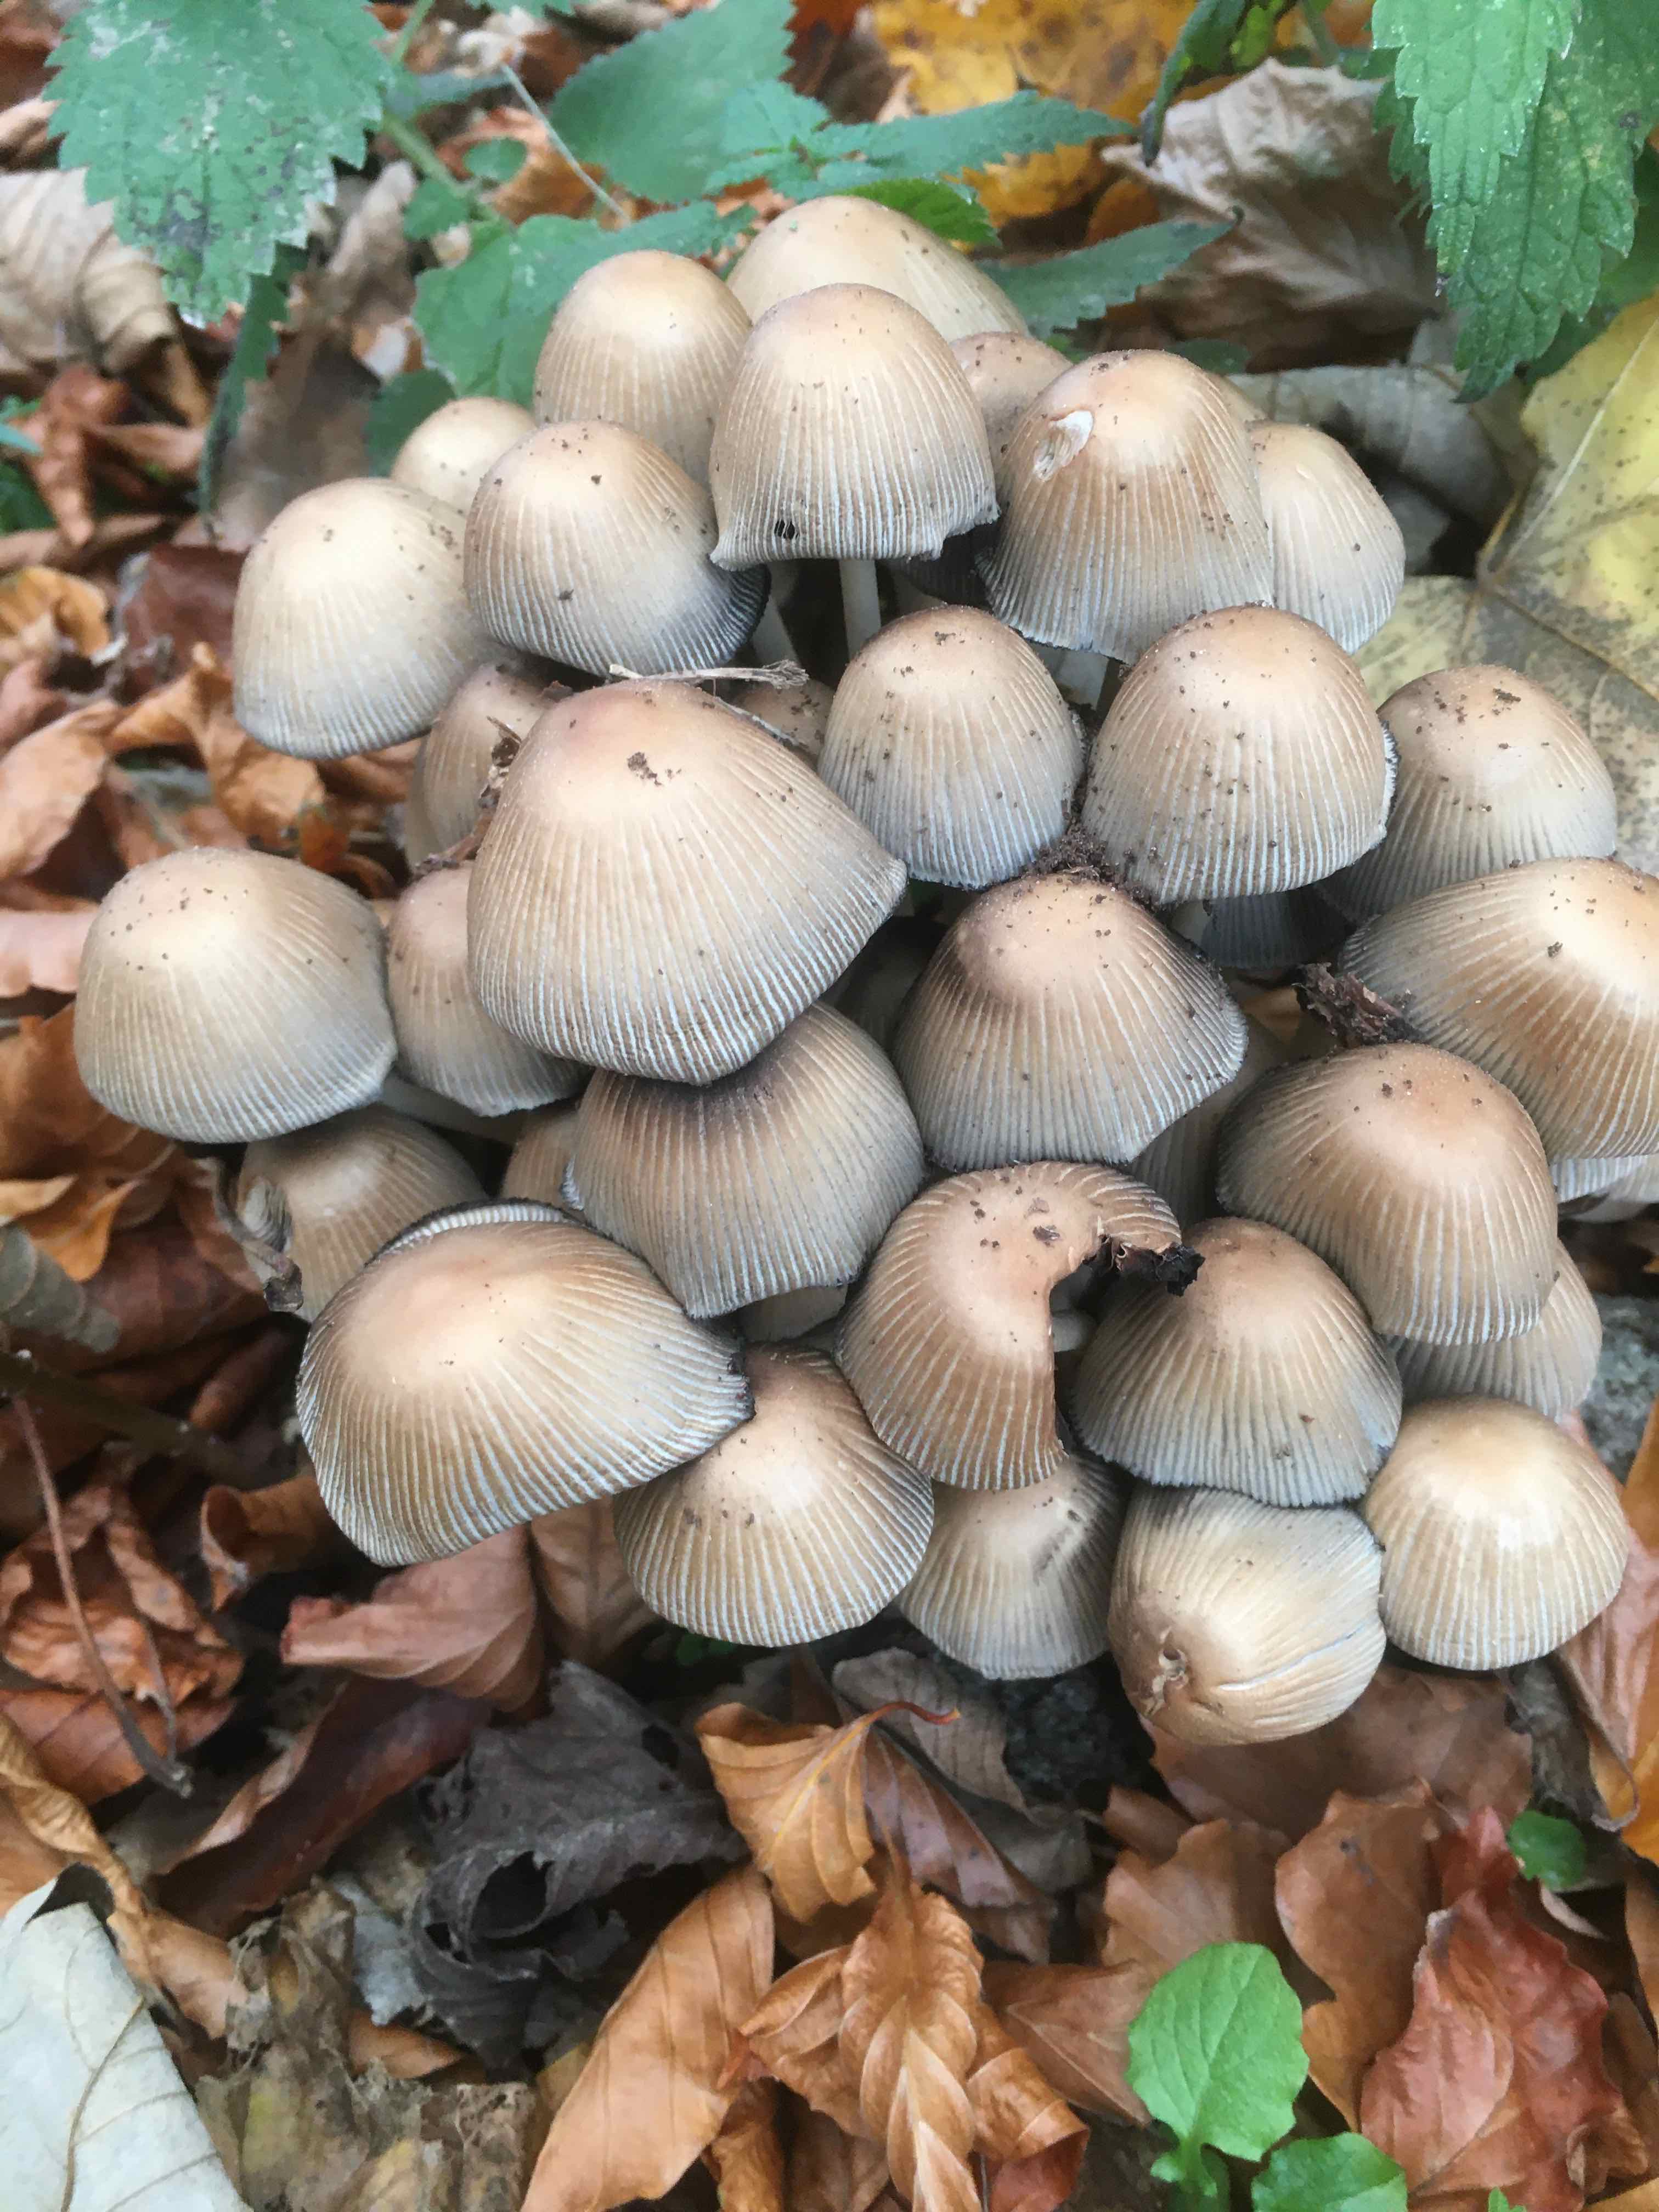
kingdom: Fungi
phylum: Basidiomycota
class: Agaricomycetes
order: Agaricales
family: Psathyrellaceae
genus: Coprinellus
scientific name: Coprinellus
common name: blækhat
